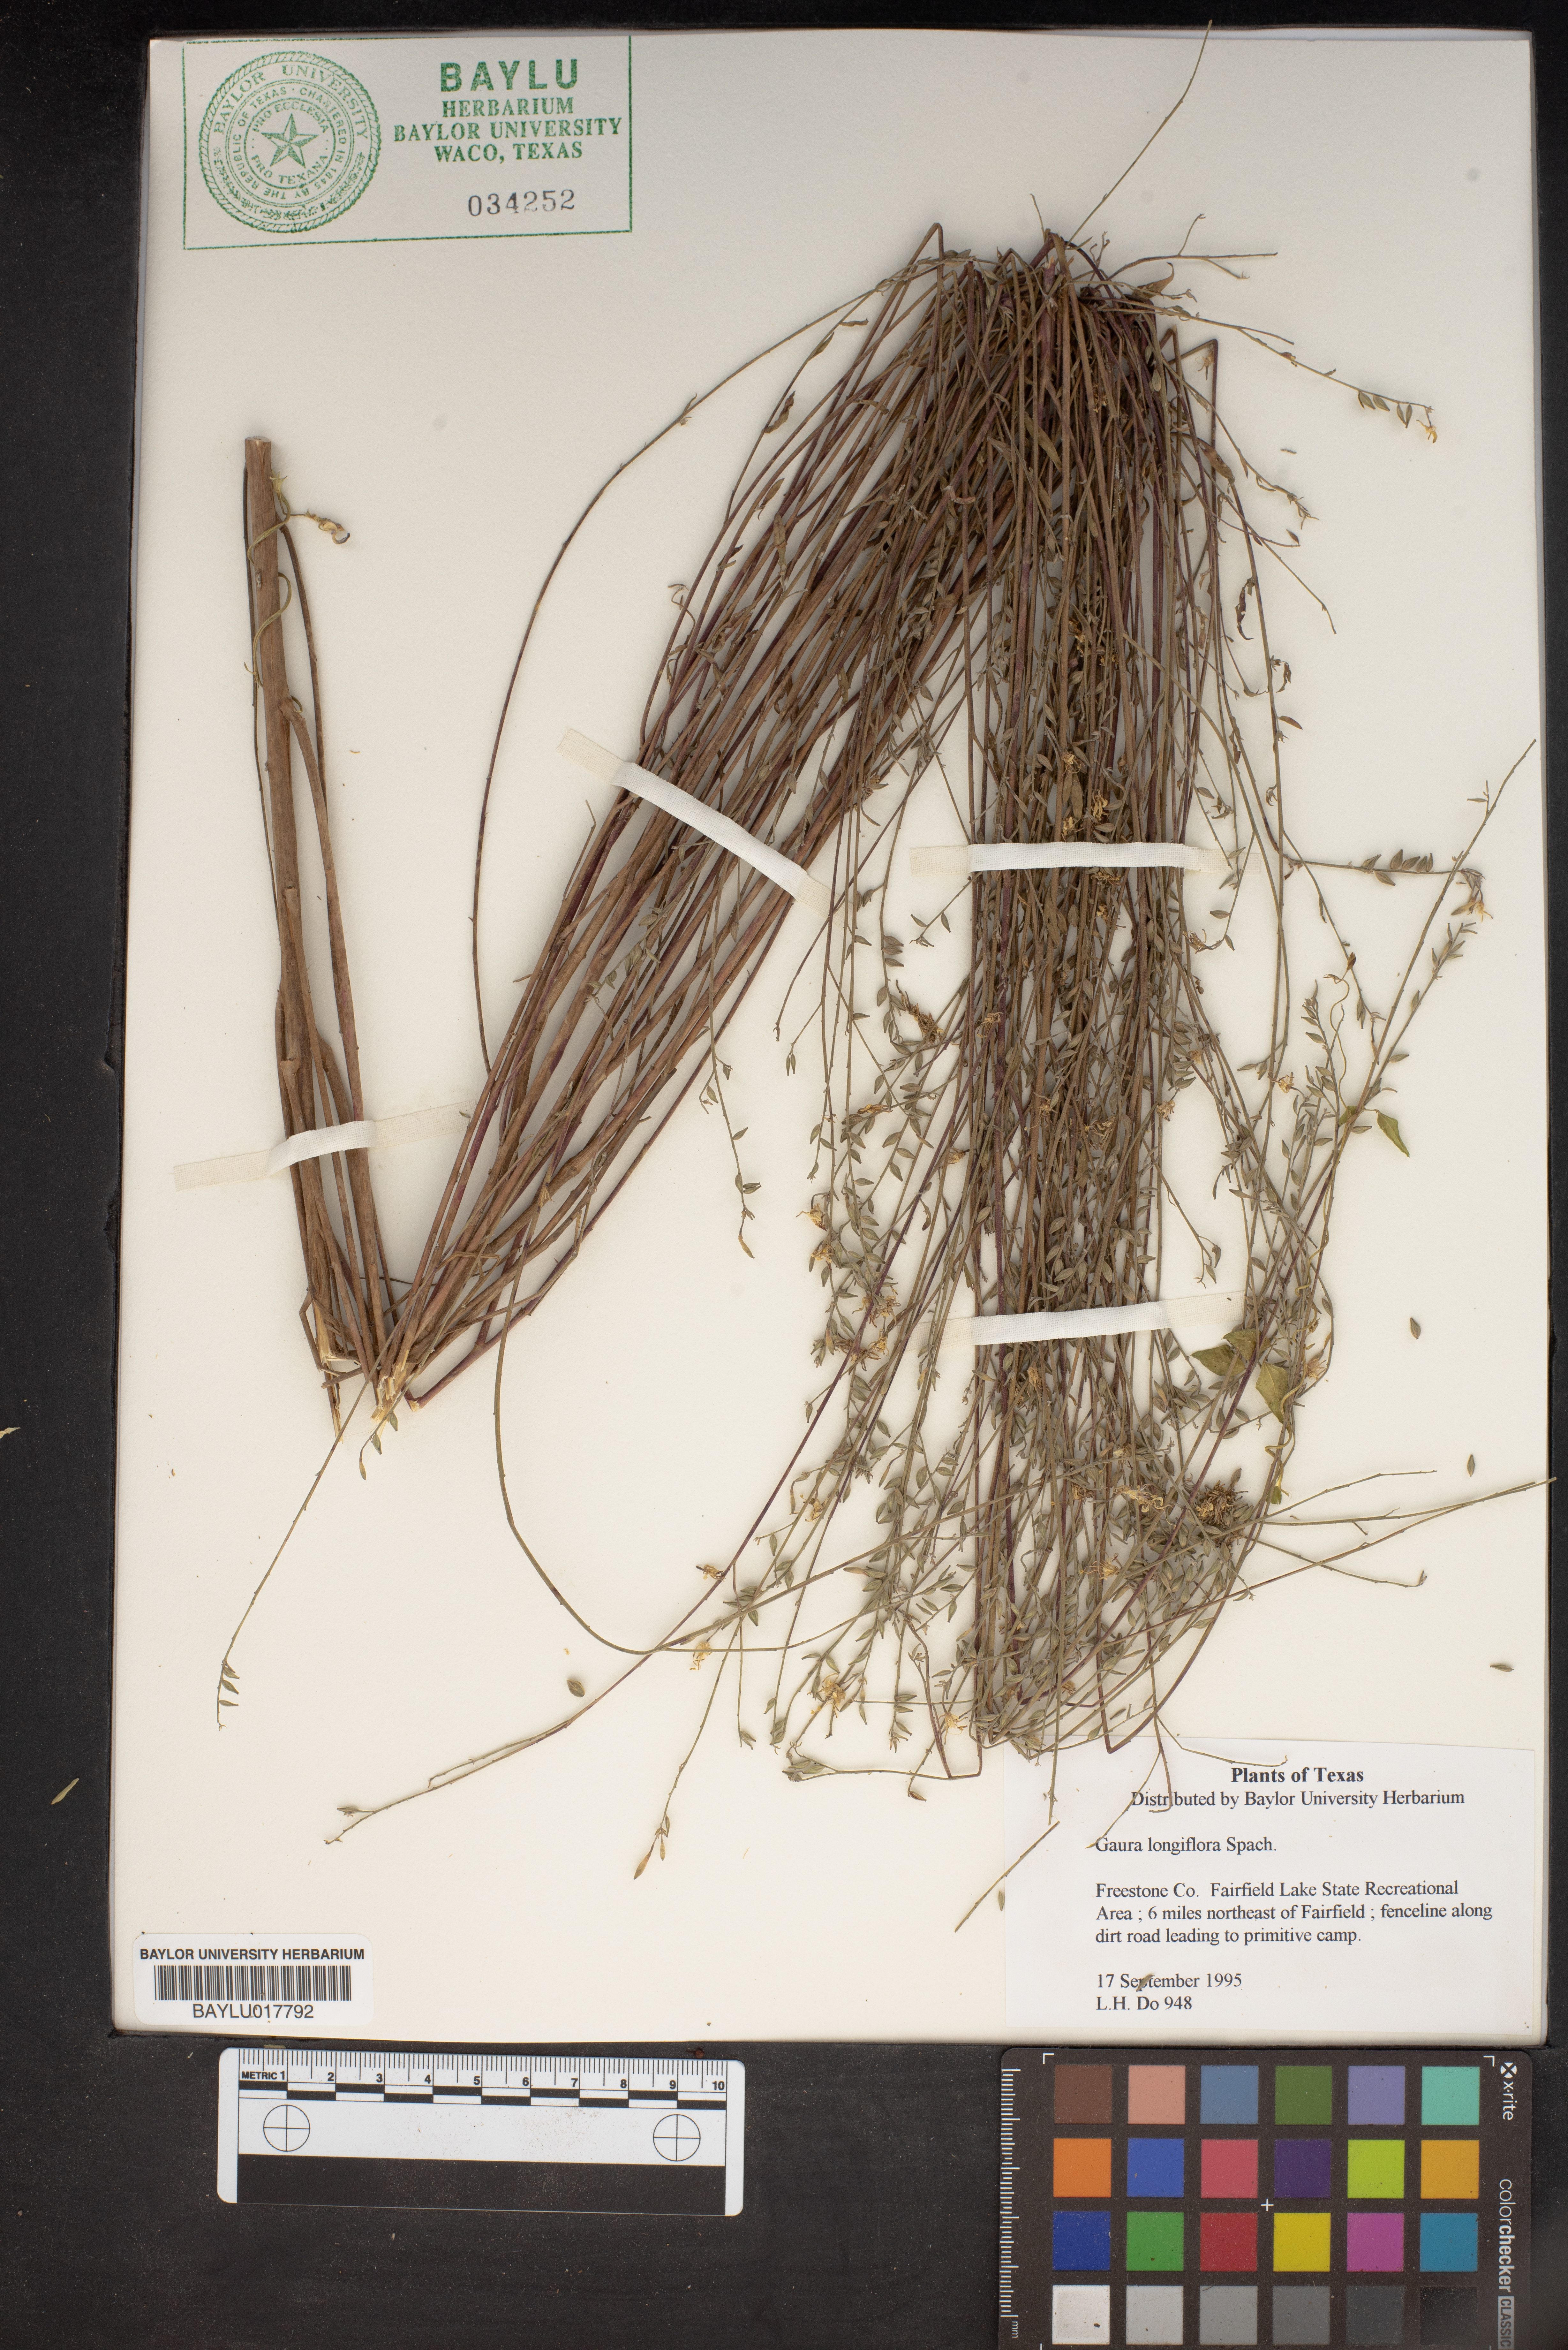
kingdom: Plantae
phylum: Tracheophyta
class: Magnoliopsida
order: Myrtales
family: Onagraceae
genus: Oenothera
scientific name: Oenothera filiformis
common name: Longflower beeblossom
